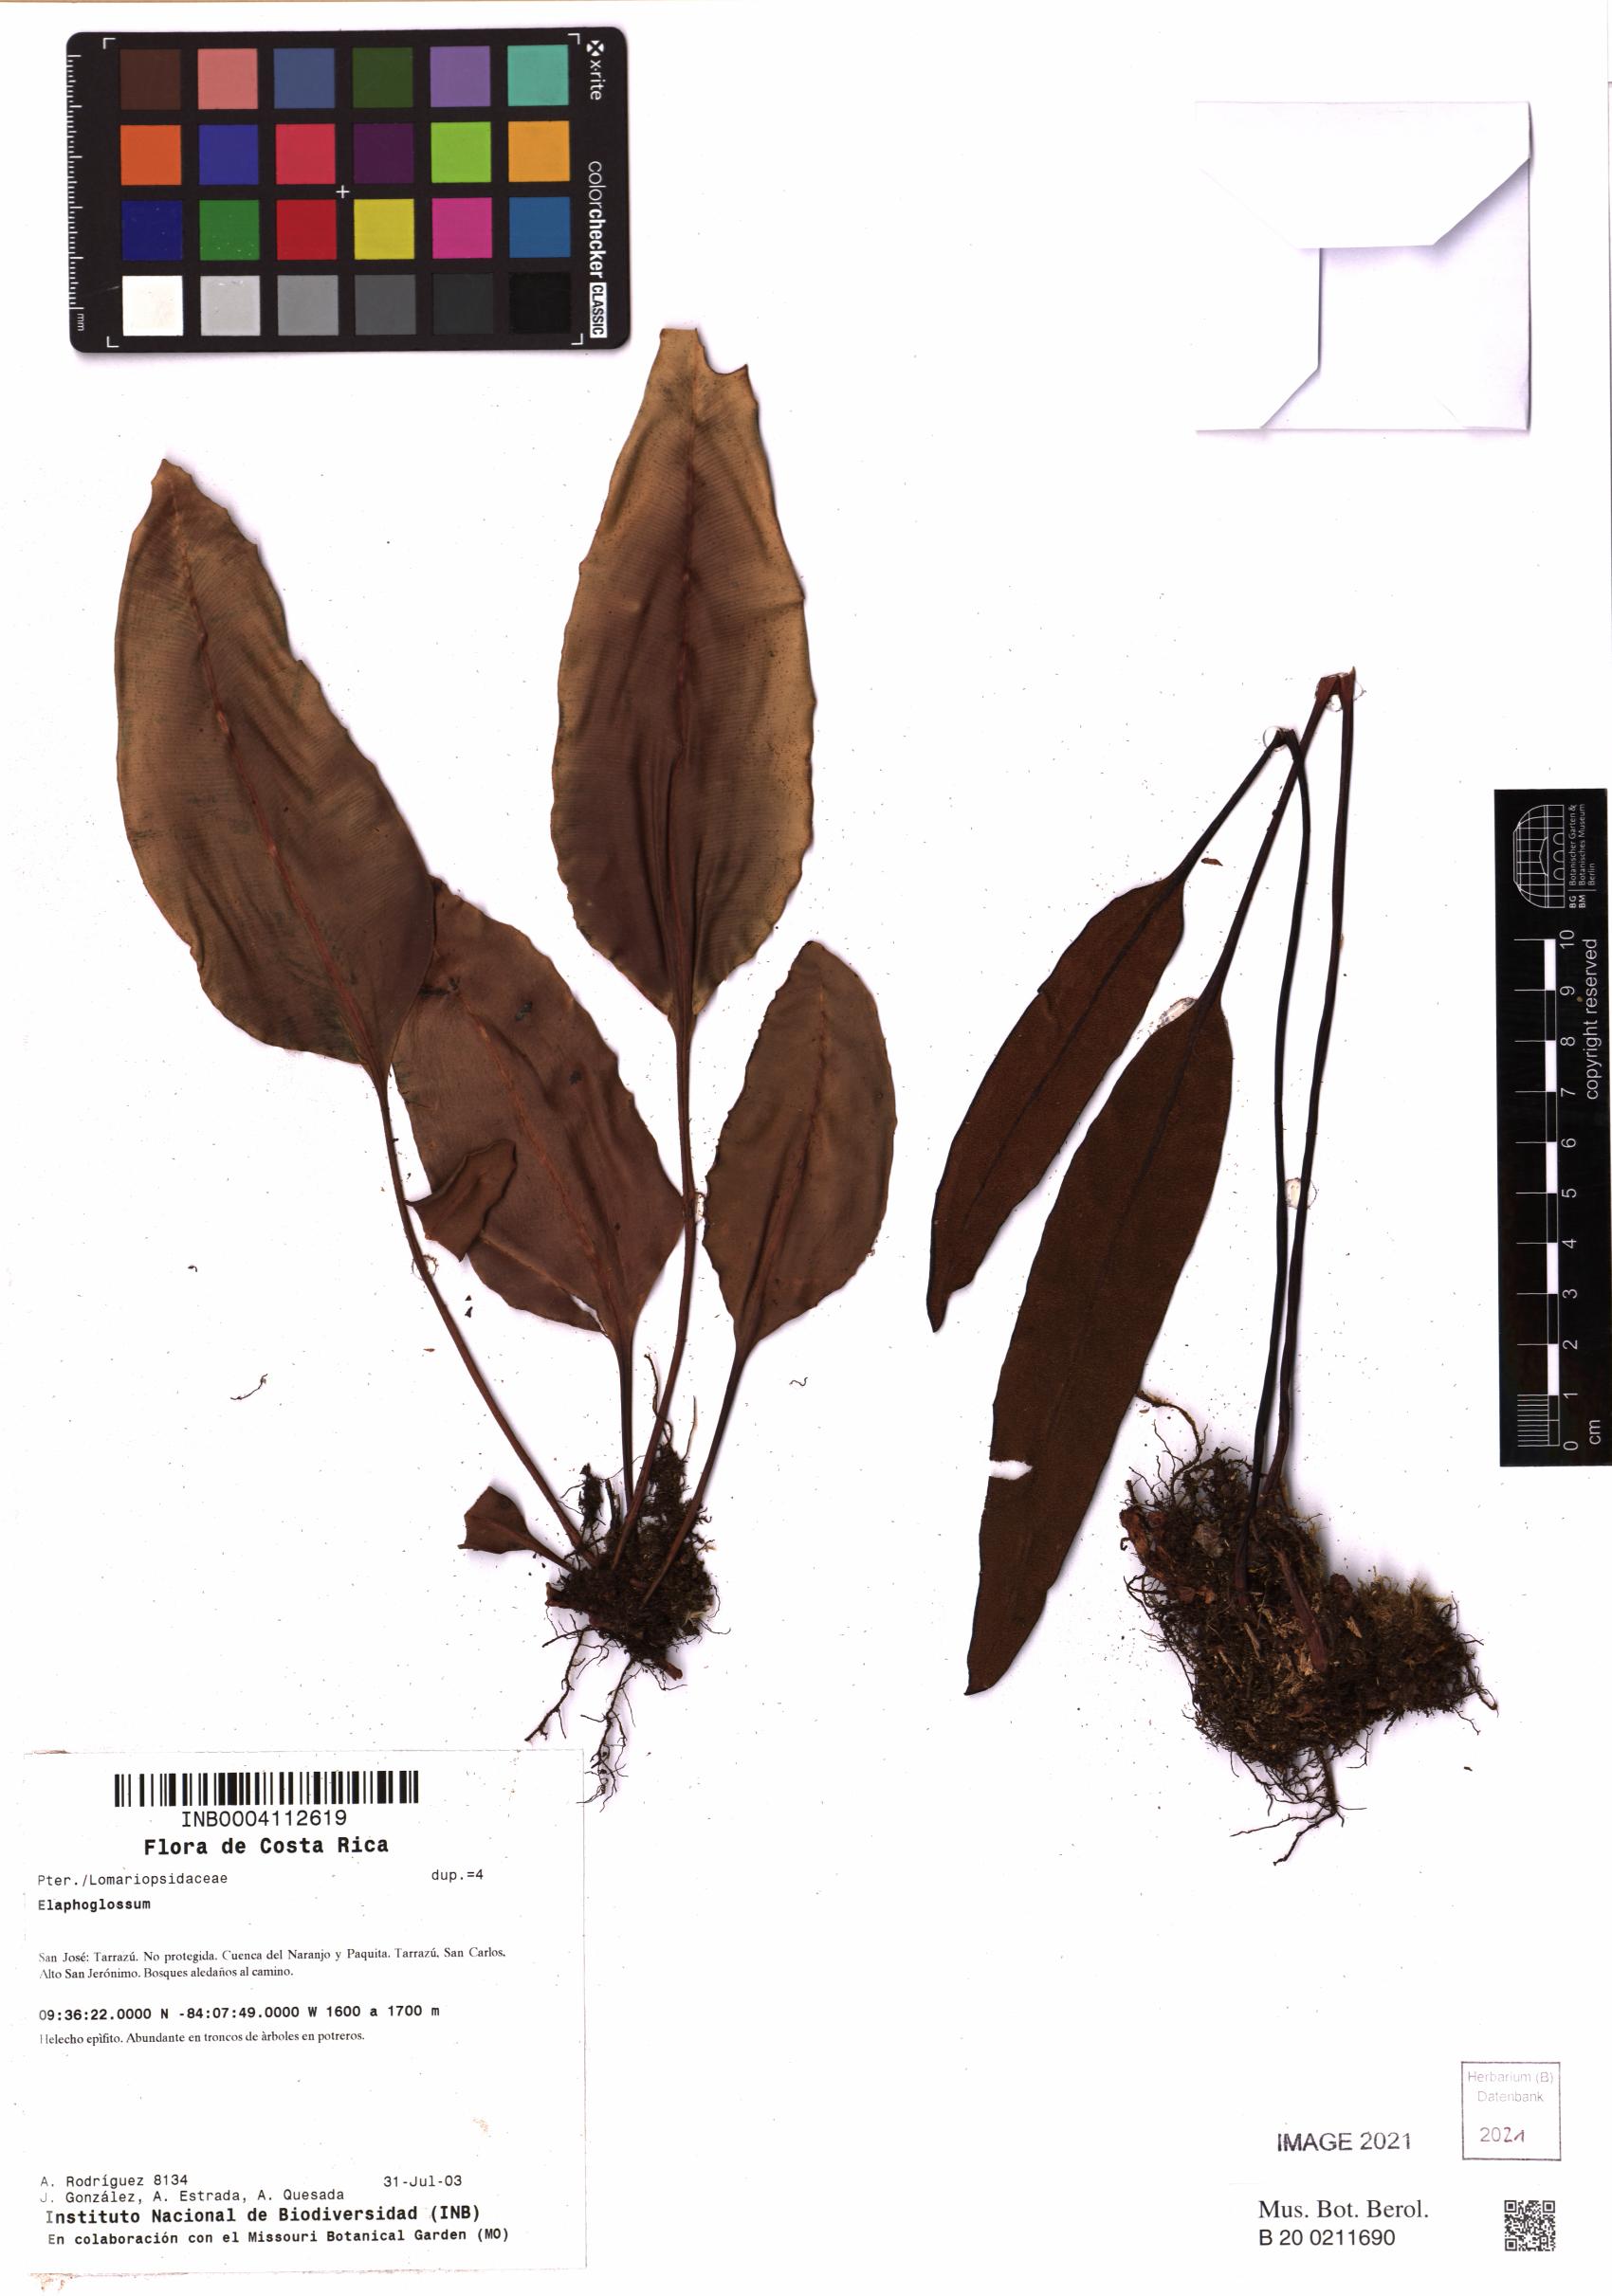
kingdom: Plantae
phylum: Tracheophyta
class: Polypodiopsida
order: Polypodiales
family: Dryopteridaceae
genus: Elaphoglossum
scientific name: Elaphoglossum
